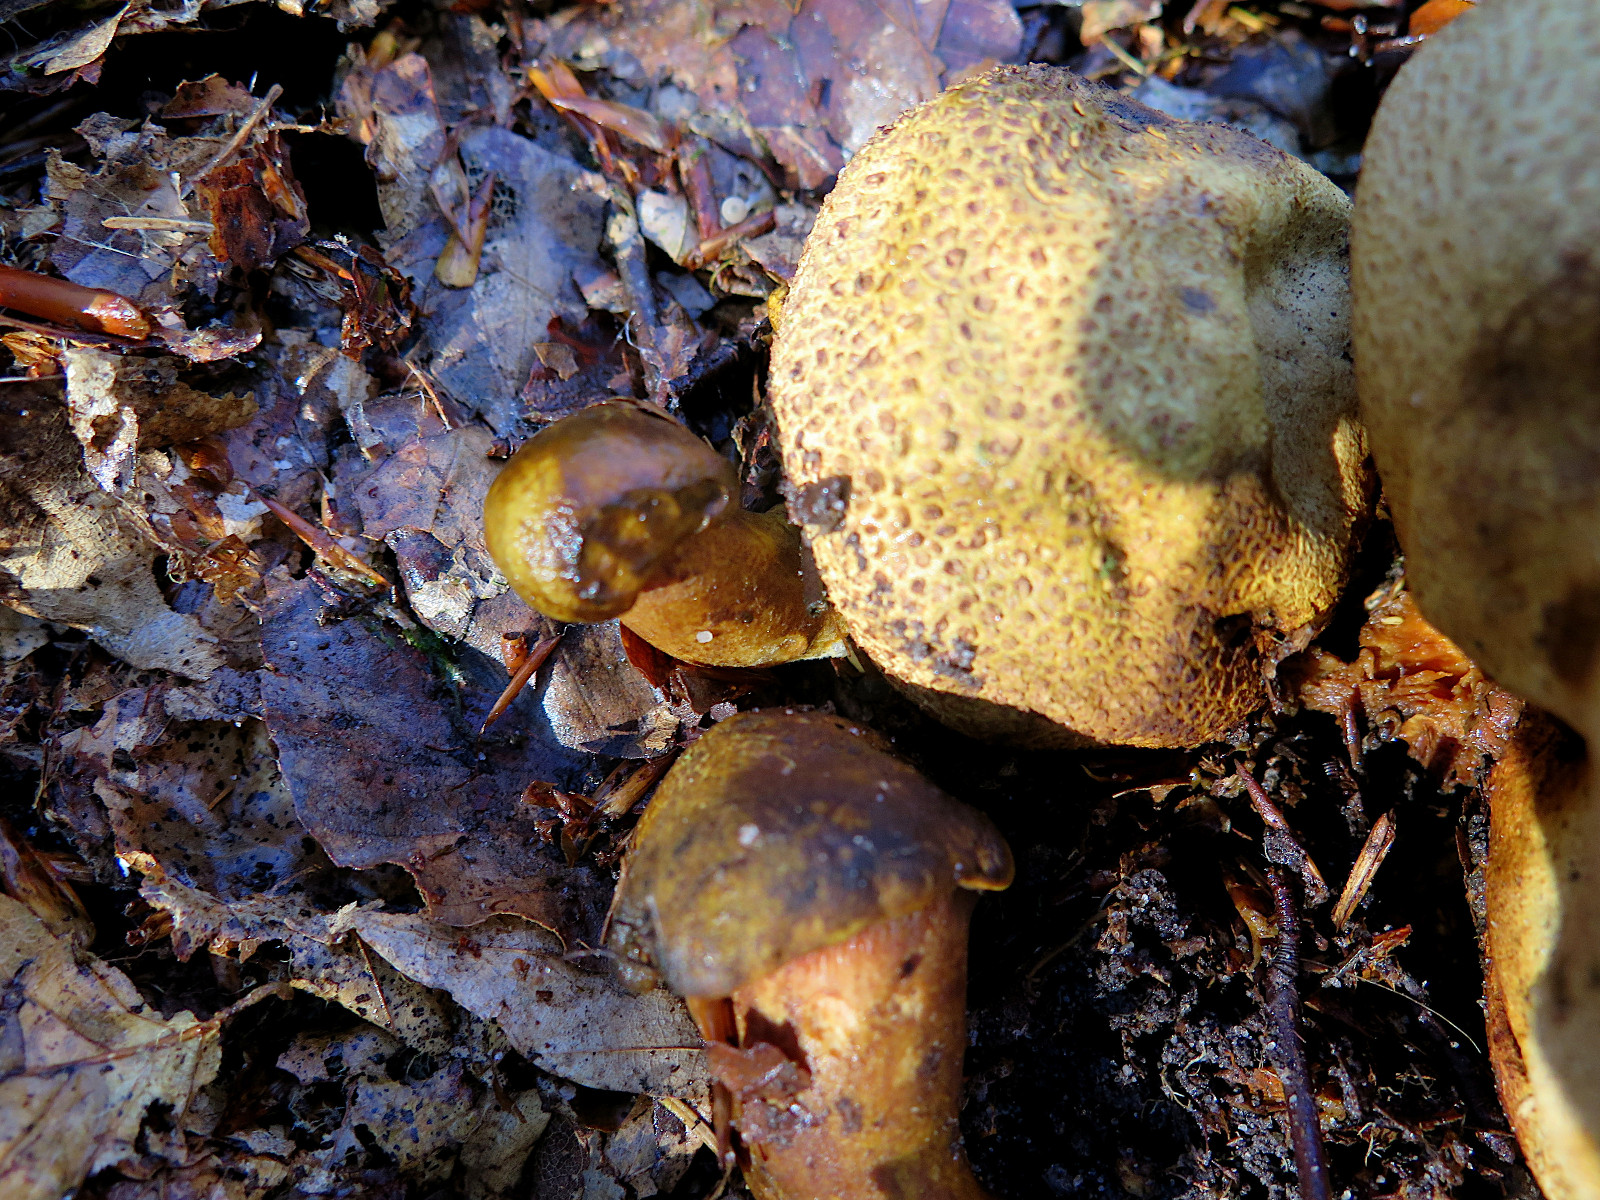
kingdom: Fungi
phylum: Basidiomycota
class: Agaricomycetes
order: Boletales
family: Boletaceae
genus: Pseudoboletus
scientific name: Pseudoboletus parasiticus
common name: snyltende rørhat
